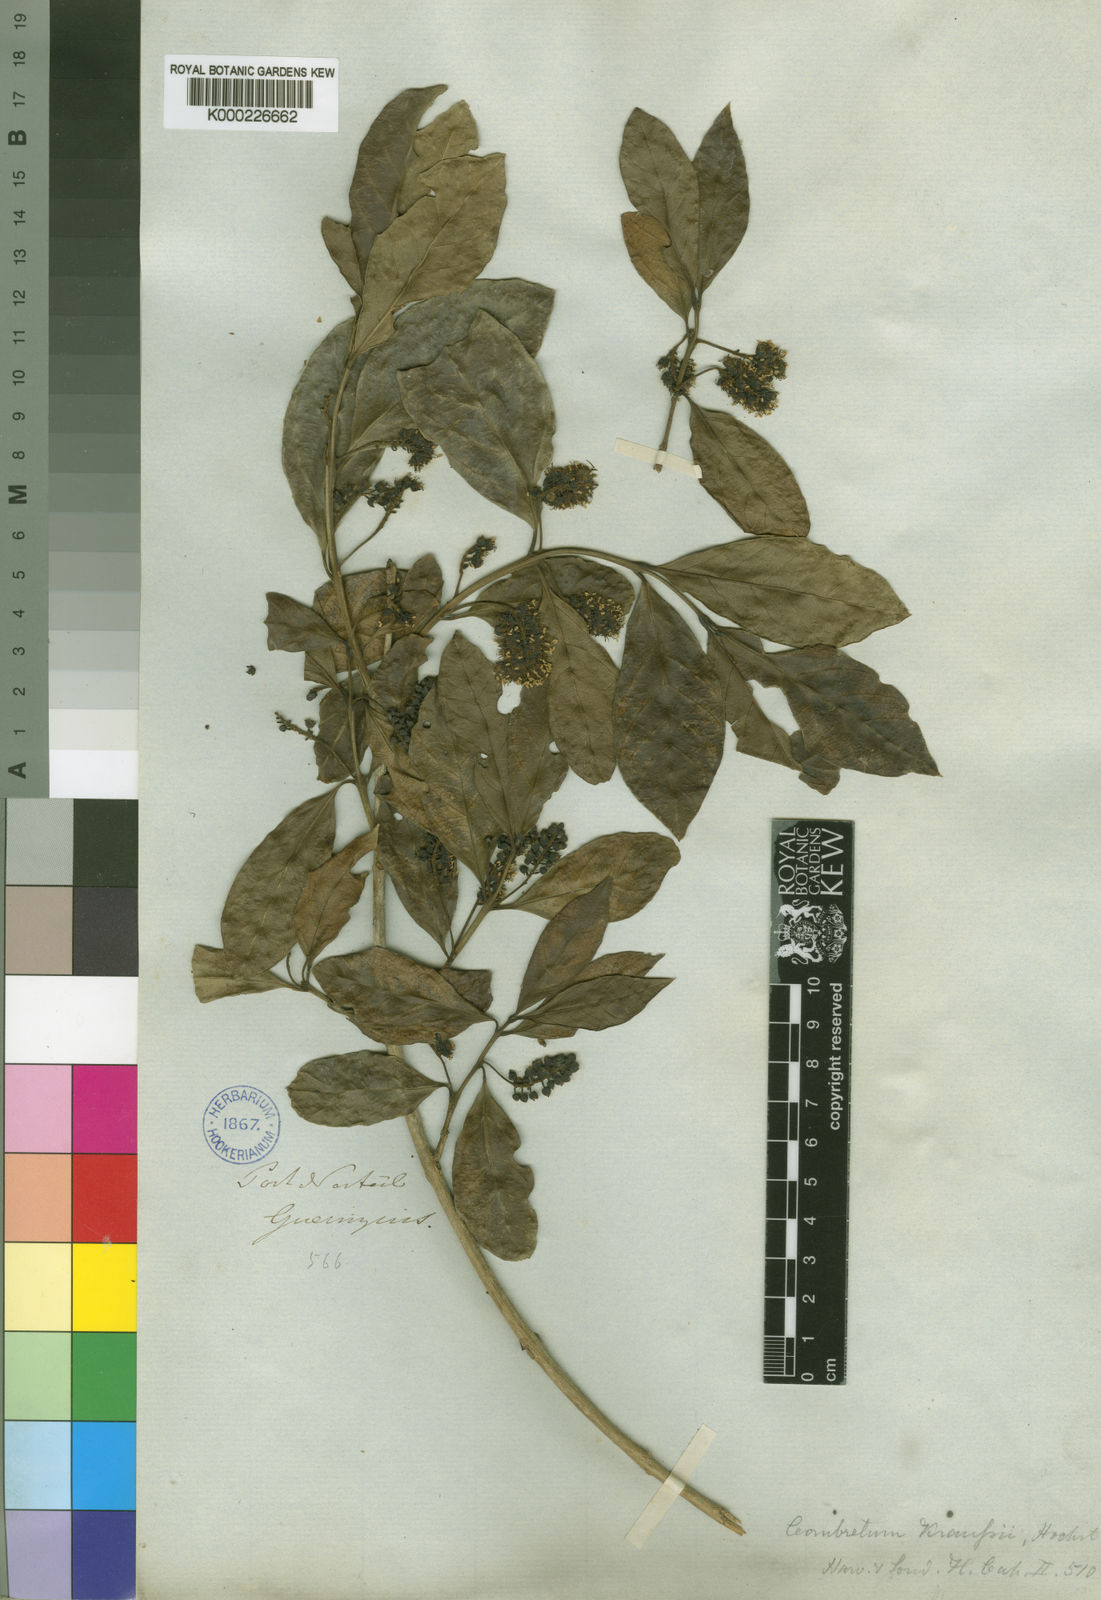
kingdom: Plantae
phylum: Tracheophyta
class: Magnoliopsida
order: Myrtales
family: Combretaceae
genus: Combretum
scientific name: Combretum kraussii
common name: Forest bushwillow
